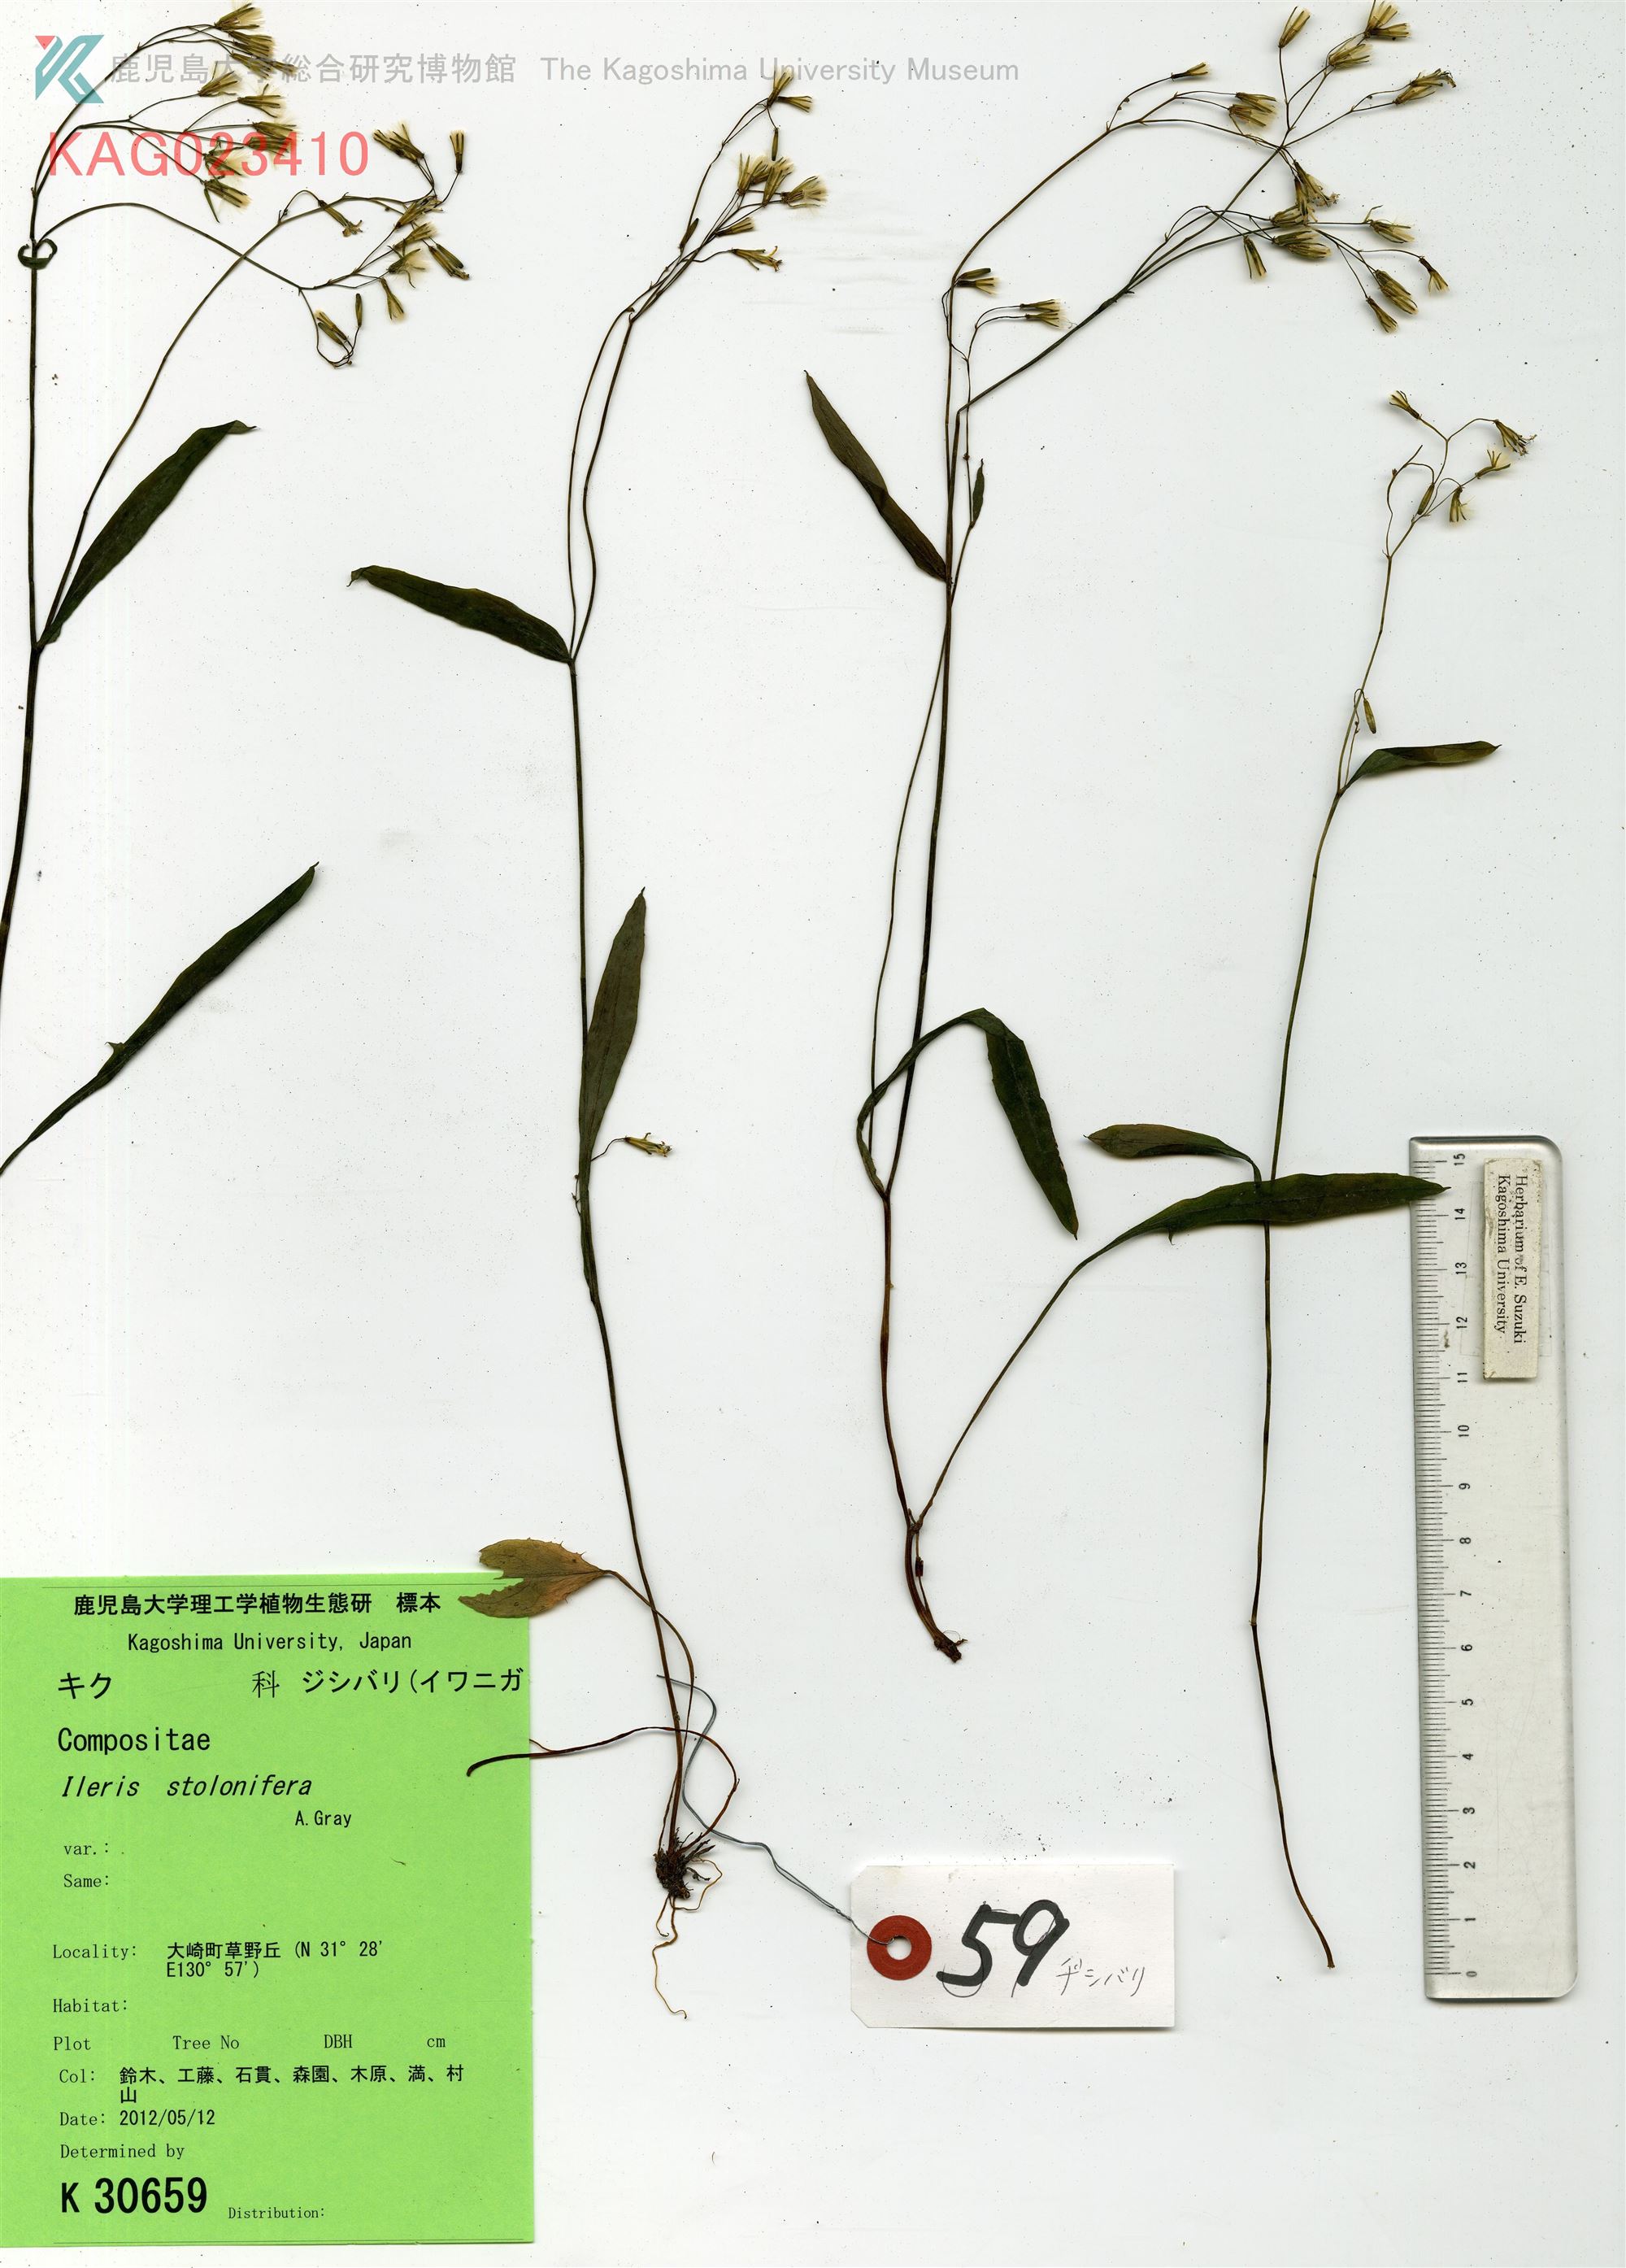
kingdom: Plantae
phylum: Tracheophyta
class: Magnoliopsida
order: Asterales
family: Asteraceae
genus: Ixeridium
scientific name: Ixeridium dentatum
